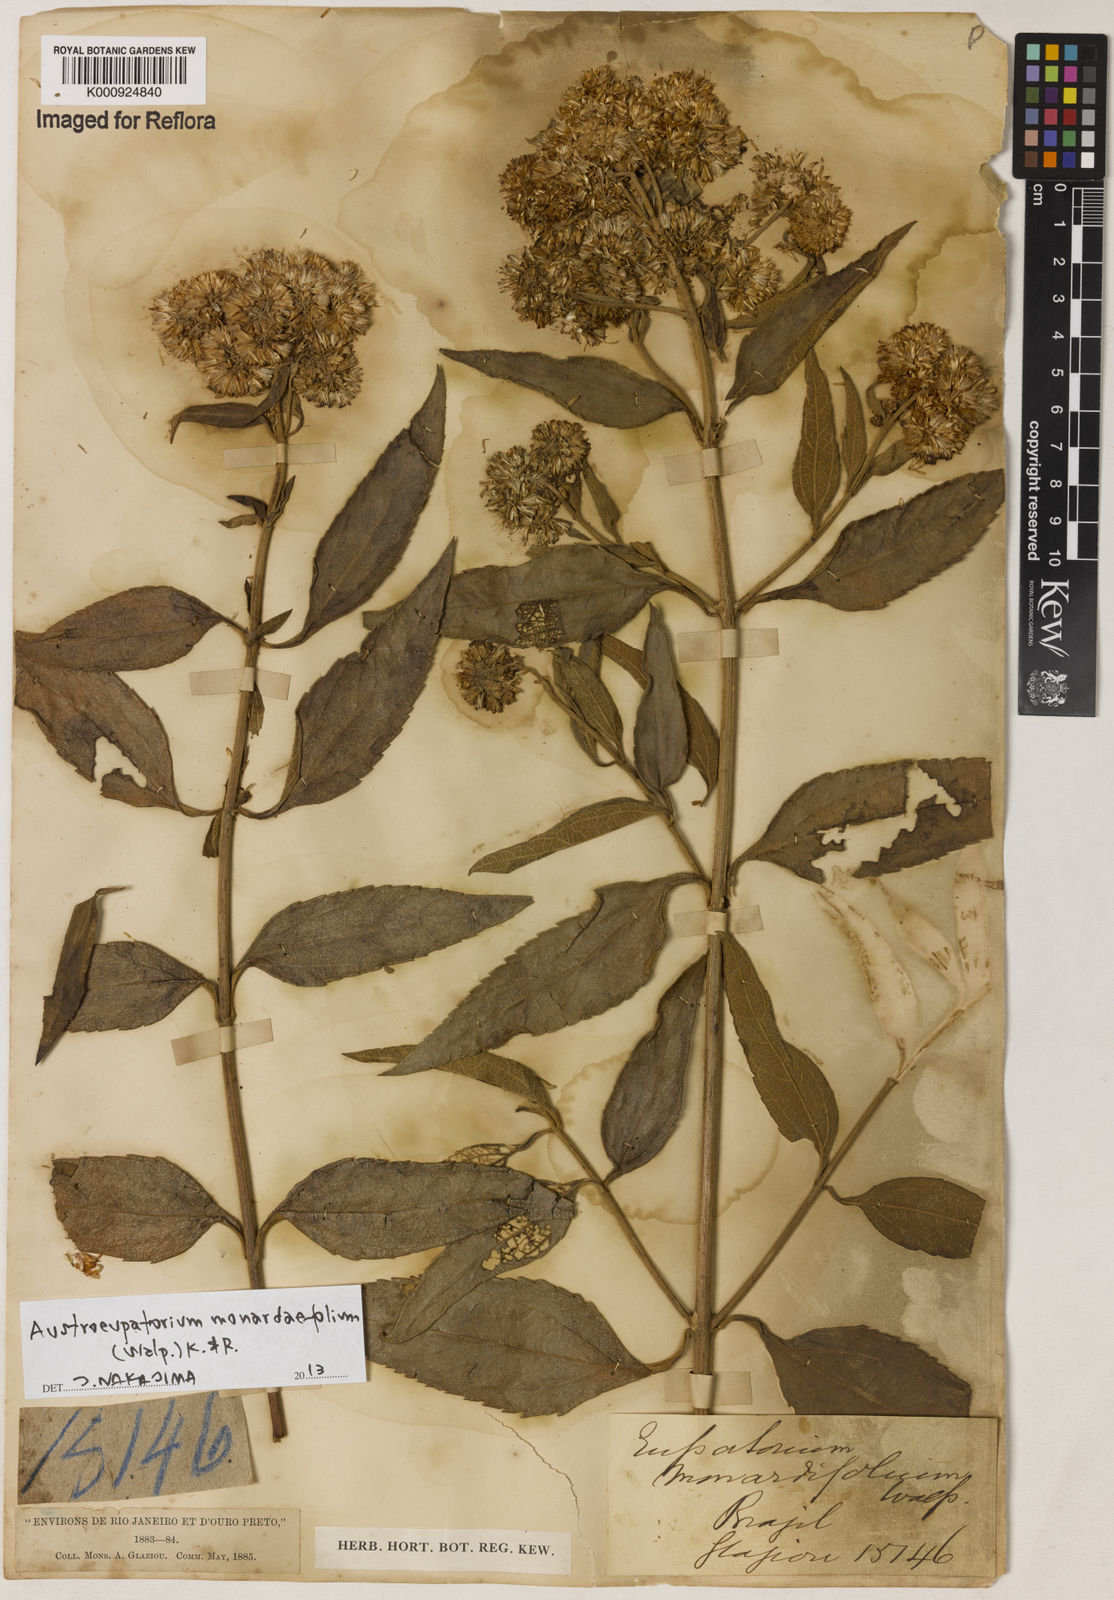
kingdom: Plantae
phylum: Tracheophyta
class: Magnoliopsida
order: Asterales
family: Asteraceae
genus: Austroeupatorium
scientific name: Austroeupatorium
